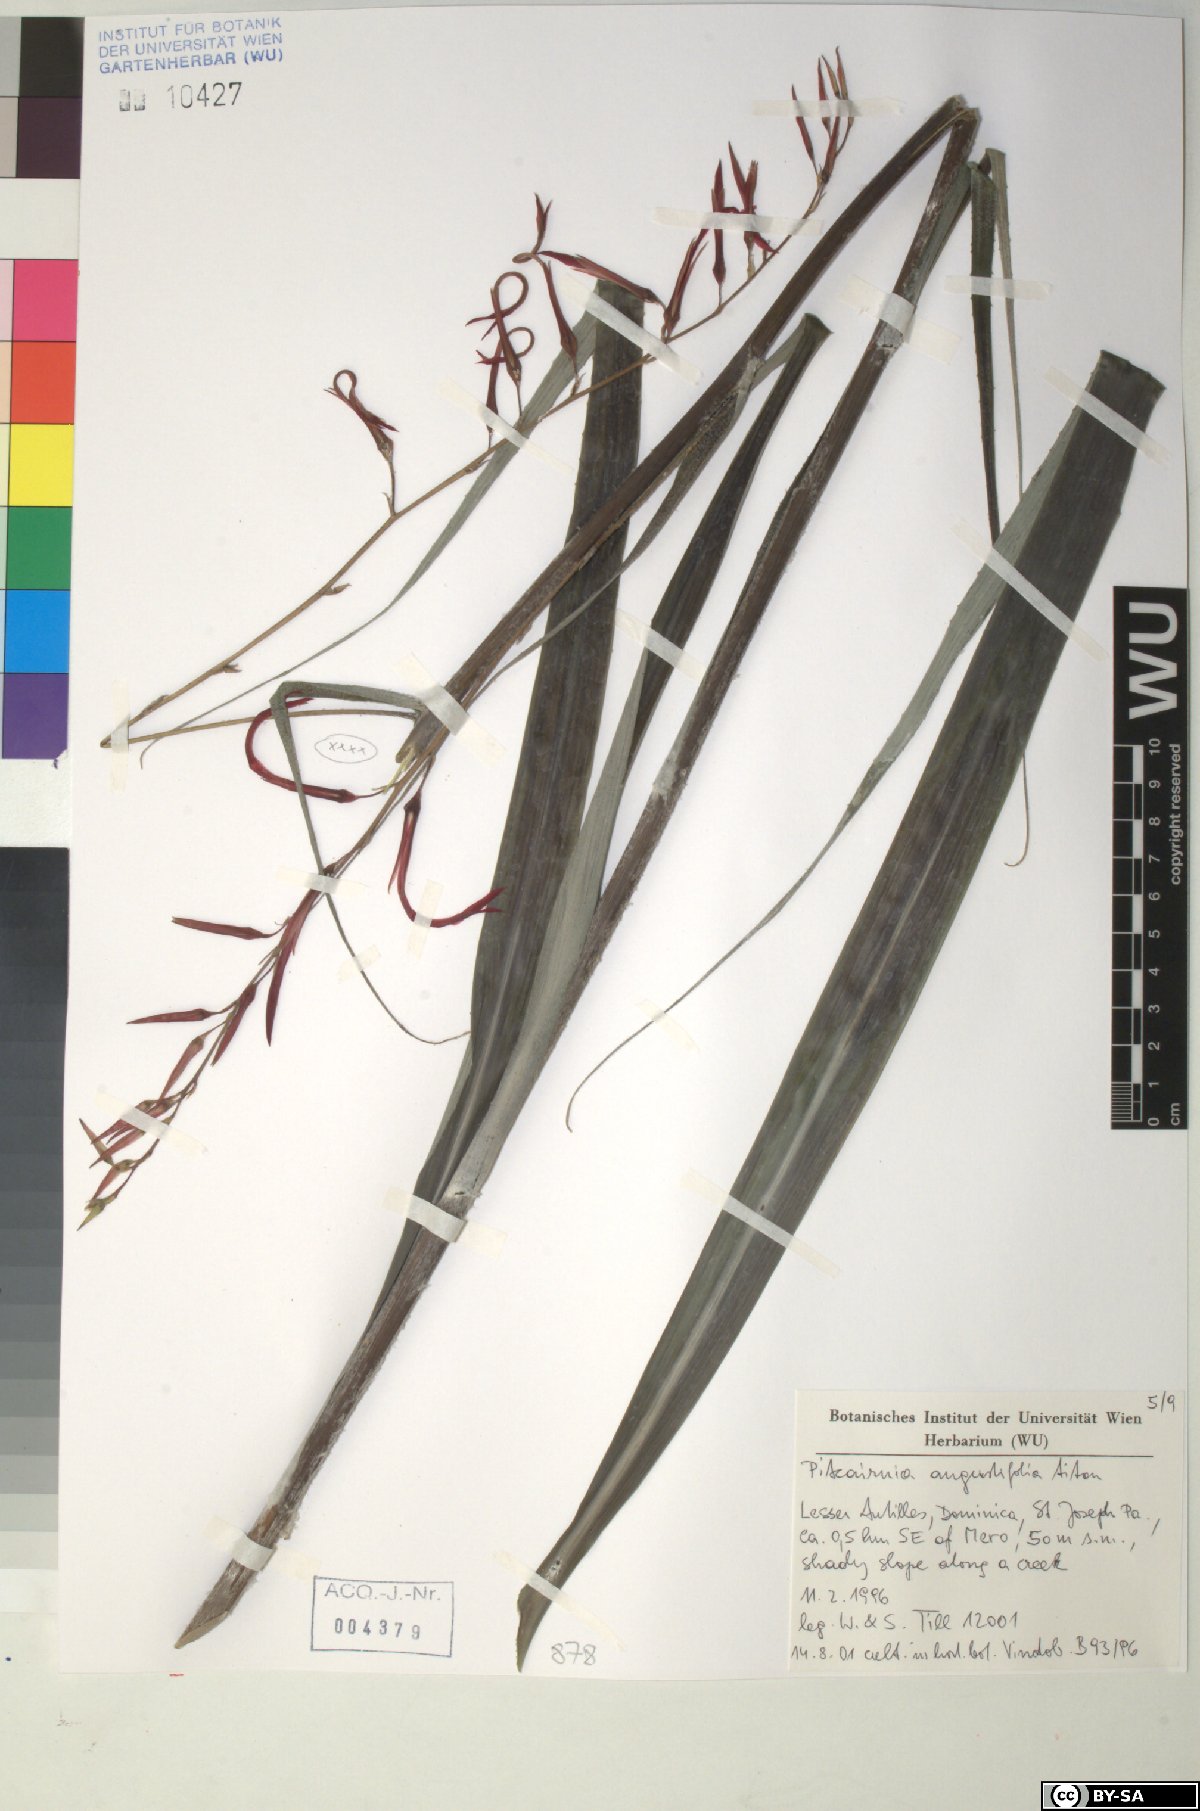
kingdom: Plantae
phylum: Tracheophyta
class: Liliopsida
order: Poales
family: Bromeliaceae
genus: Pitcairnia
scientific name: Pitcairnia angustifolia
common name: Clapper
